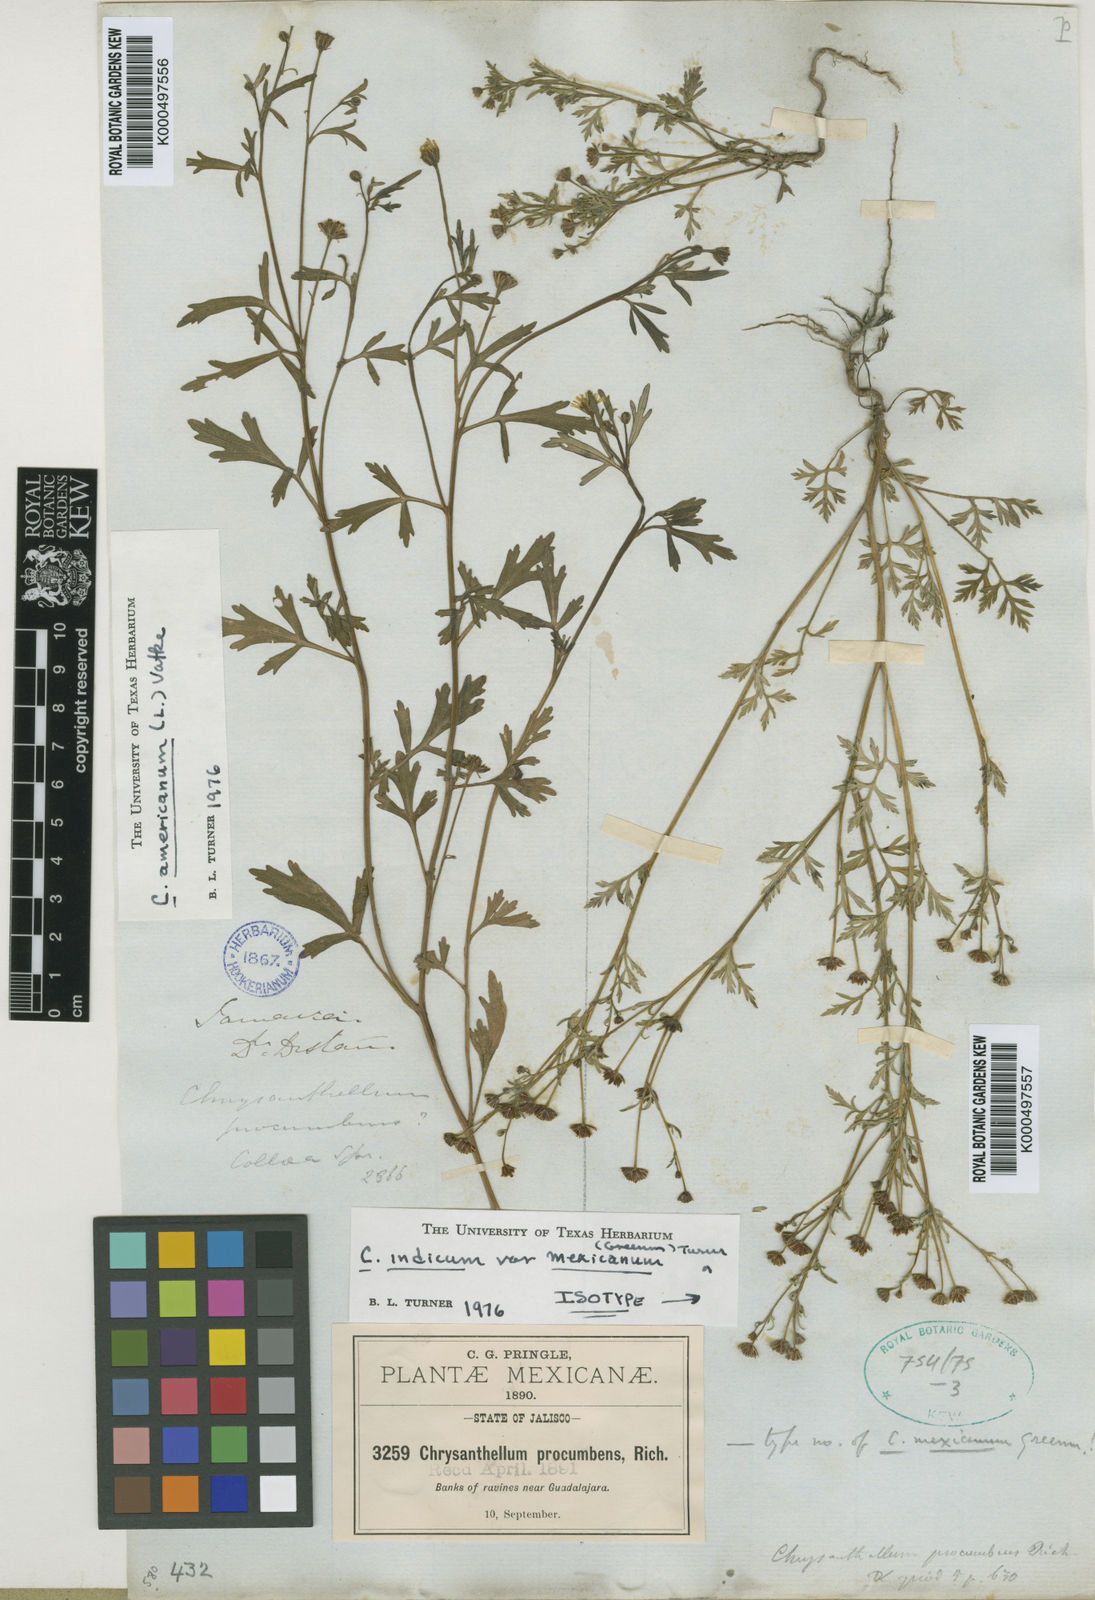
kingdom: Plantae
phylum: Tracheophyta
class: Magnoliopsida
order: Asterales
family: Asteraceae
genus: Chrysanthellum
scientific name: Chrysanthellum indicum
